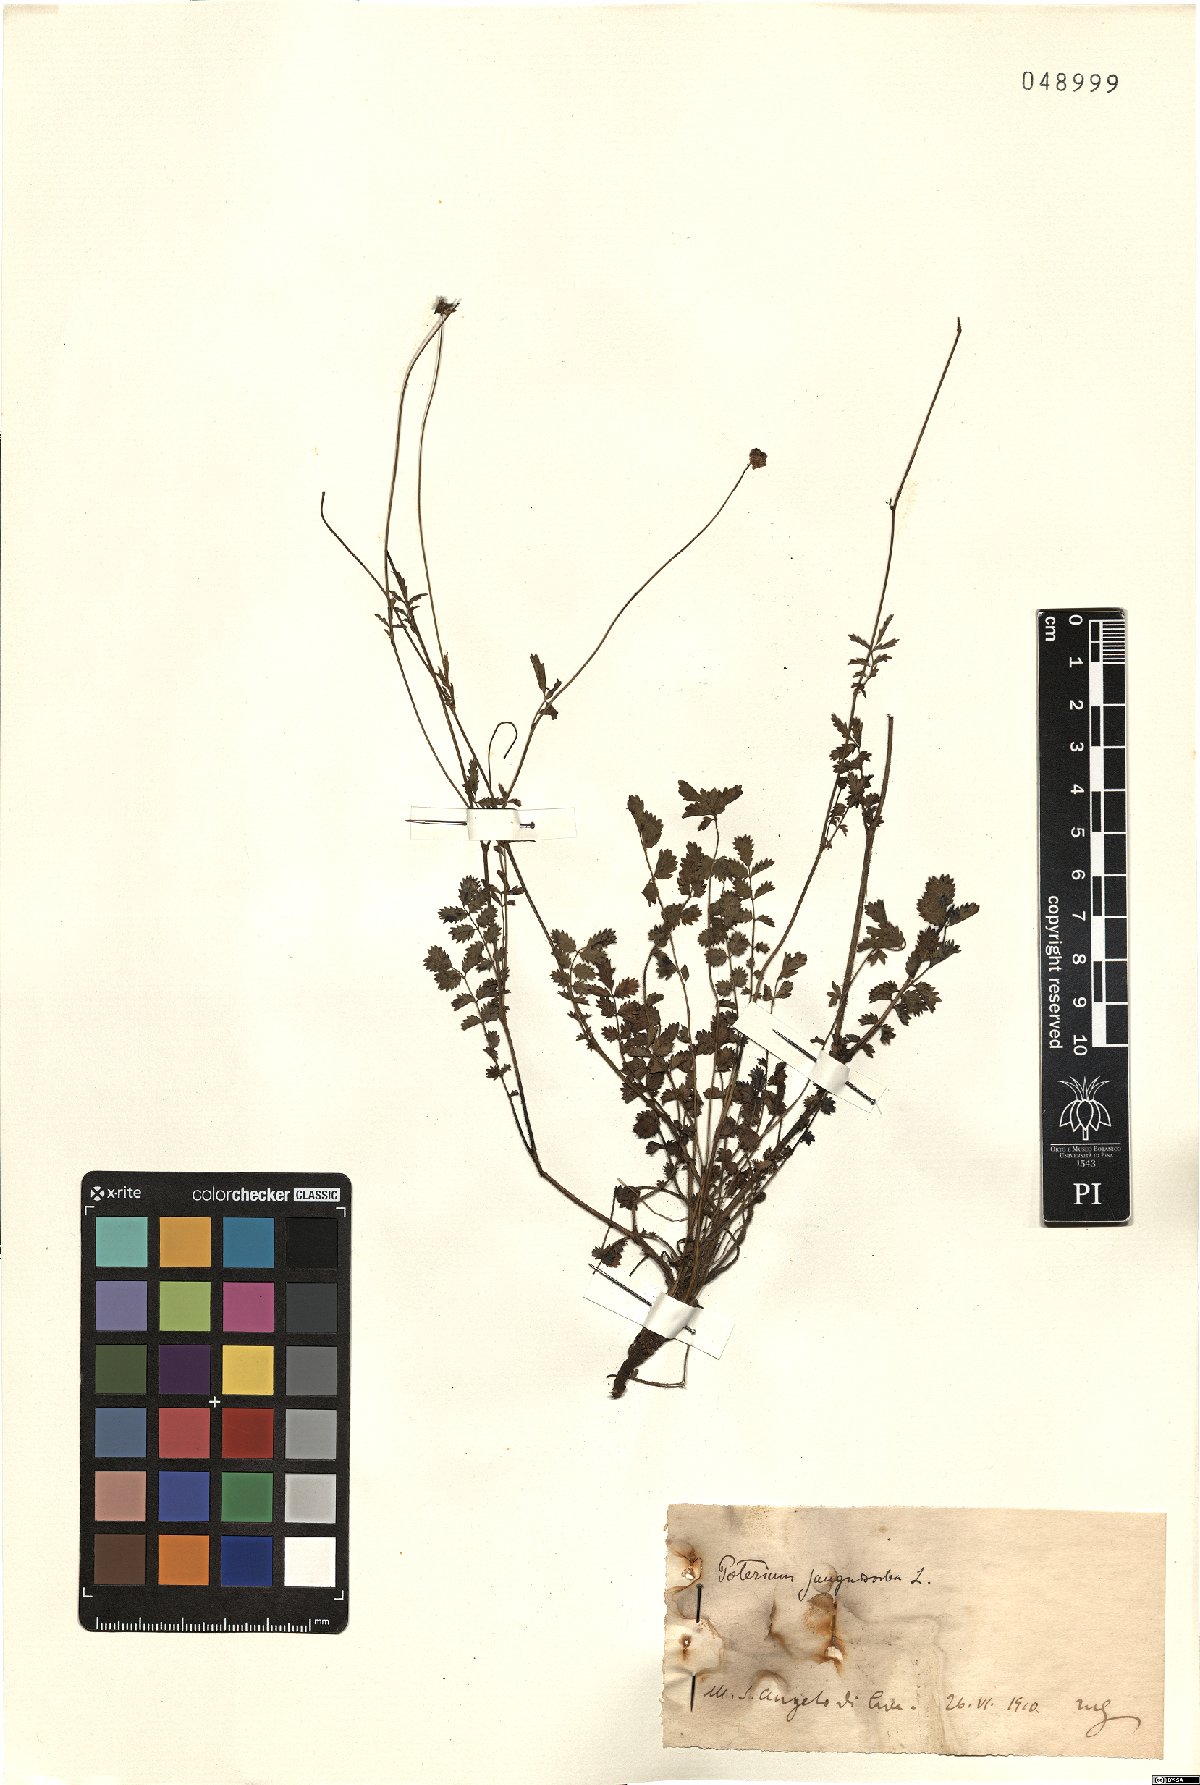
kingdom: Plantae
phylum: Tracheophyta
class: Magnoliopsida
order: Rosales
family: Rosaceae
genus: Poterium
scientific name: Poterium sanguisorba
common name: Salad burnet
